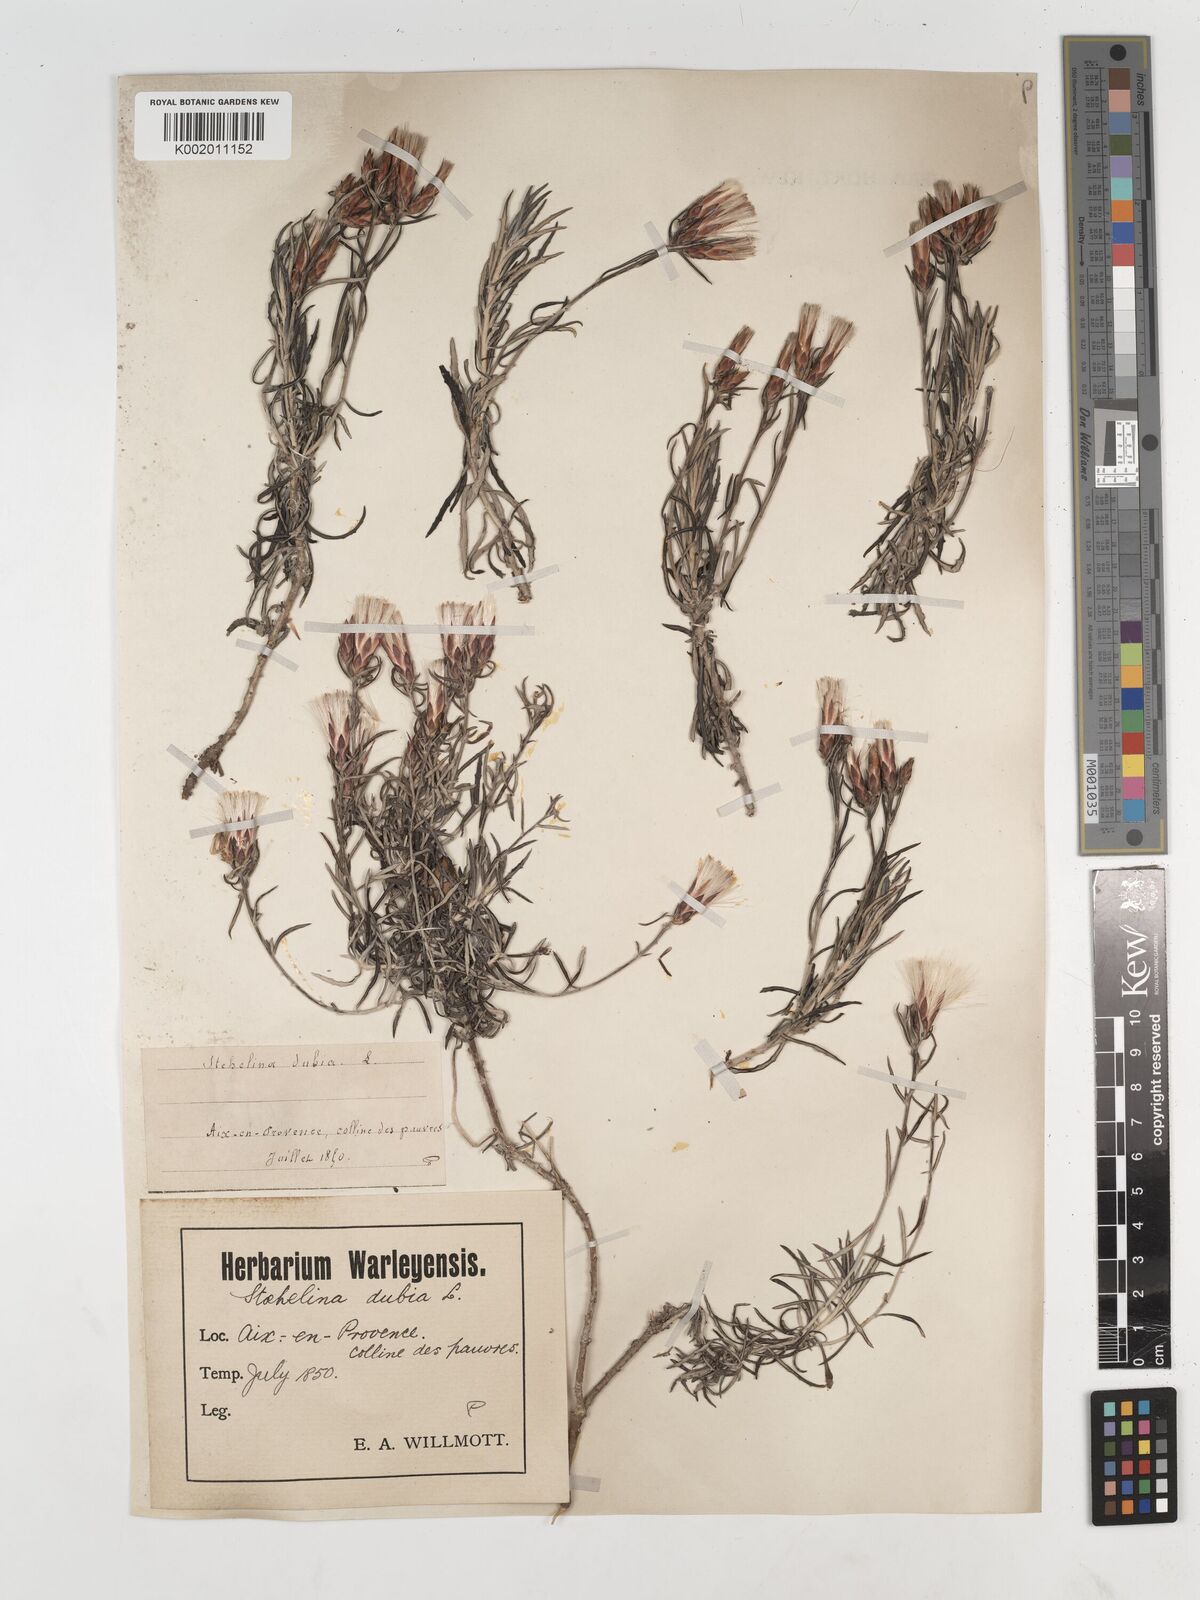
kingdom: Plantae
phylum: Tracheophyta
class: Magnoliopsida
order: Asterales
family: Asteraceae
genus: Staehelina
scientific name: Staehelina dubia
